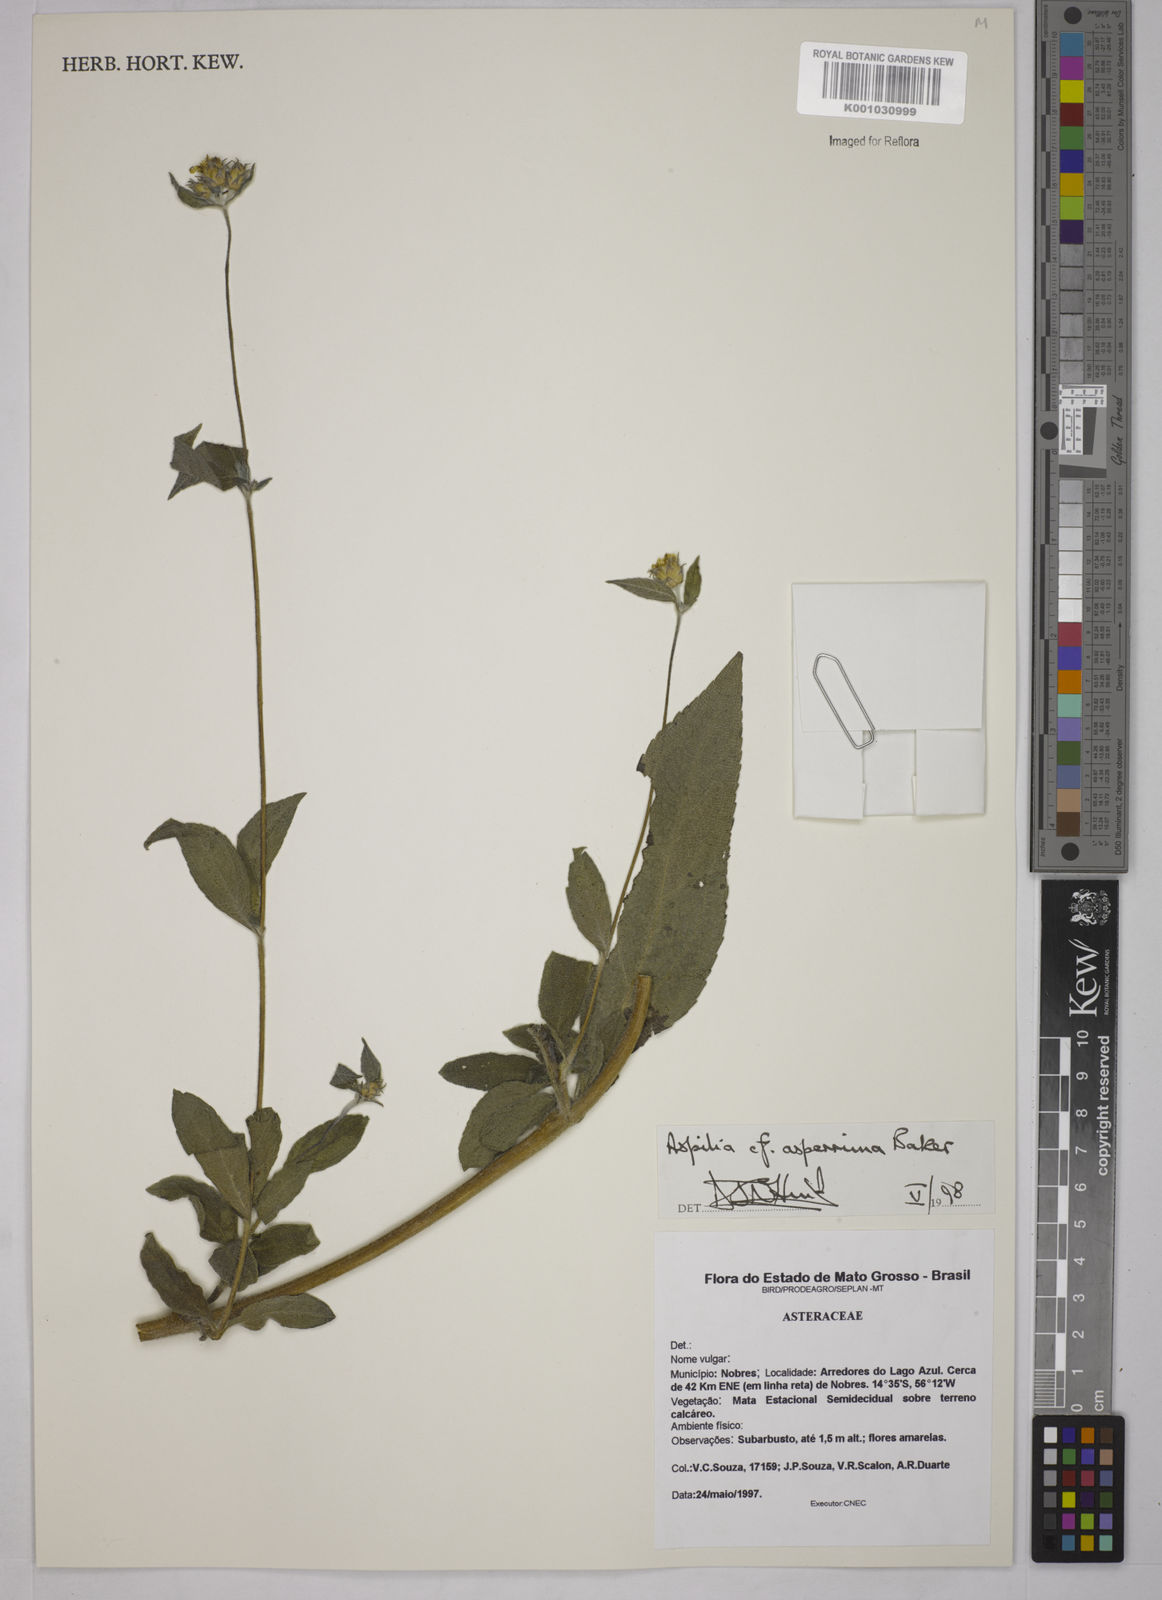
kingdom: Plantae
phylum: Tracheophyta
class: Magnoliopsida
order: Asterales
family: Asteraceae
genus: Wedelia
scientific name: Wedelia gardneri
